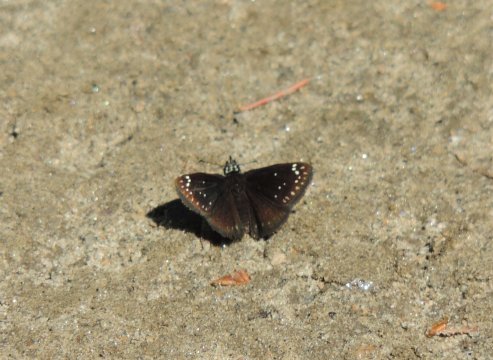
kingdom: Animalia
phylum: Arthropoda
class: Insecta
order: Lepidoptera
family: Hesperiidae
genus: Pholisora
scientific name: Pholisora catullus
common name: Common Sootywing
